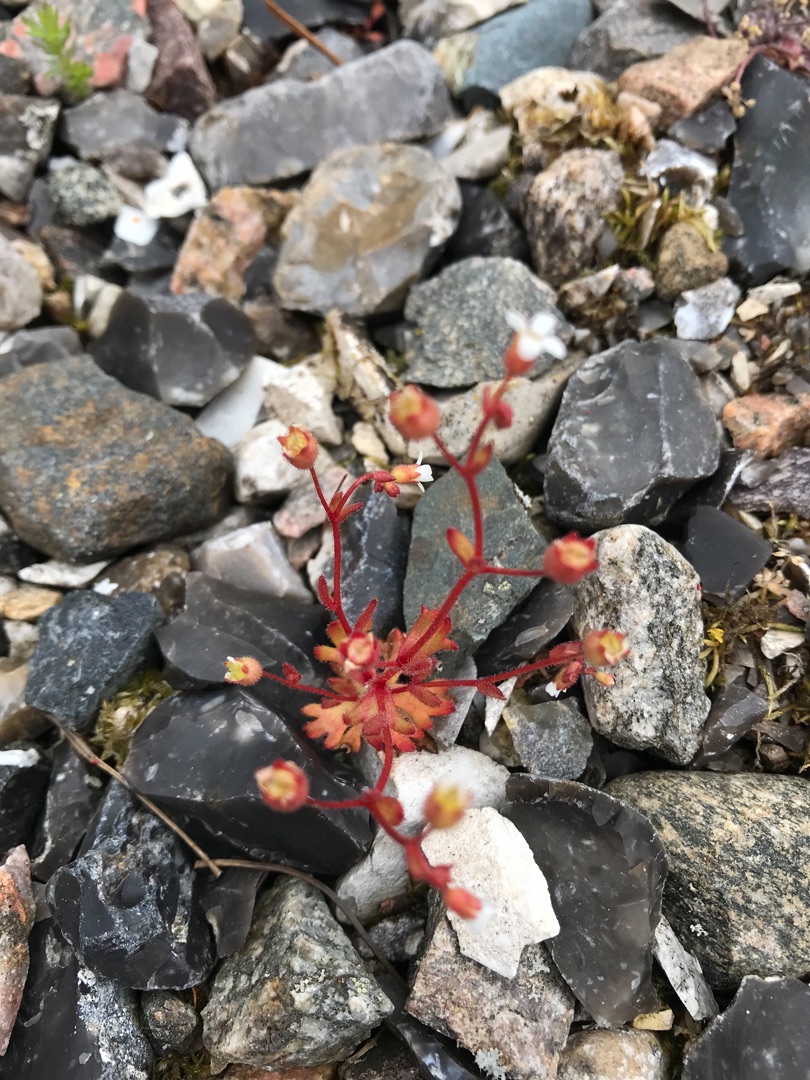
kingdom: Plantae
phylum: Tracheophyta
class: Magnoliopsida
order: Saxifragales
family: Saxifragaceae
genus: Saxifraga
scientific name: Saxifraga tridactylites
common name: Trekløft-stenbræk
